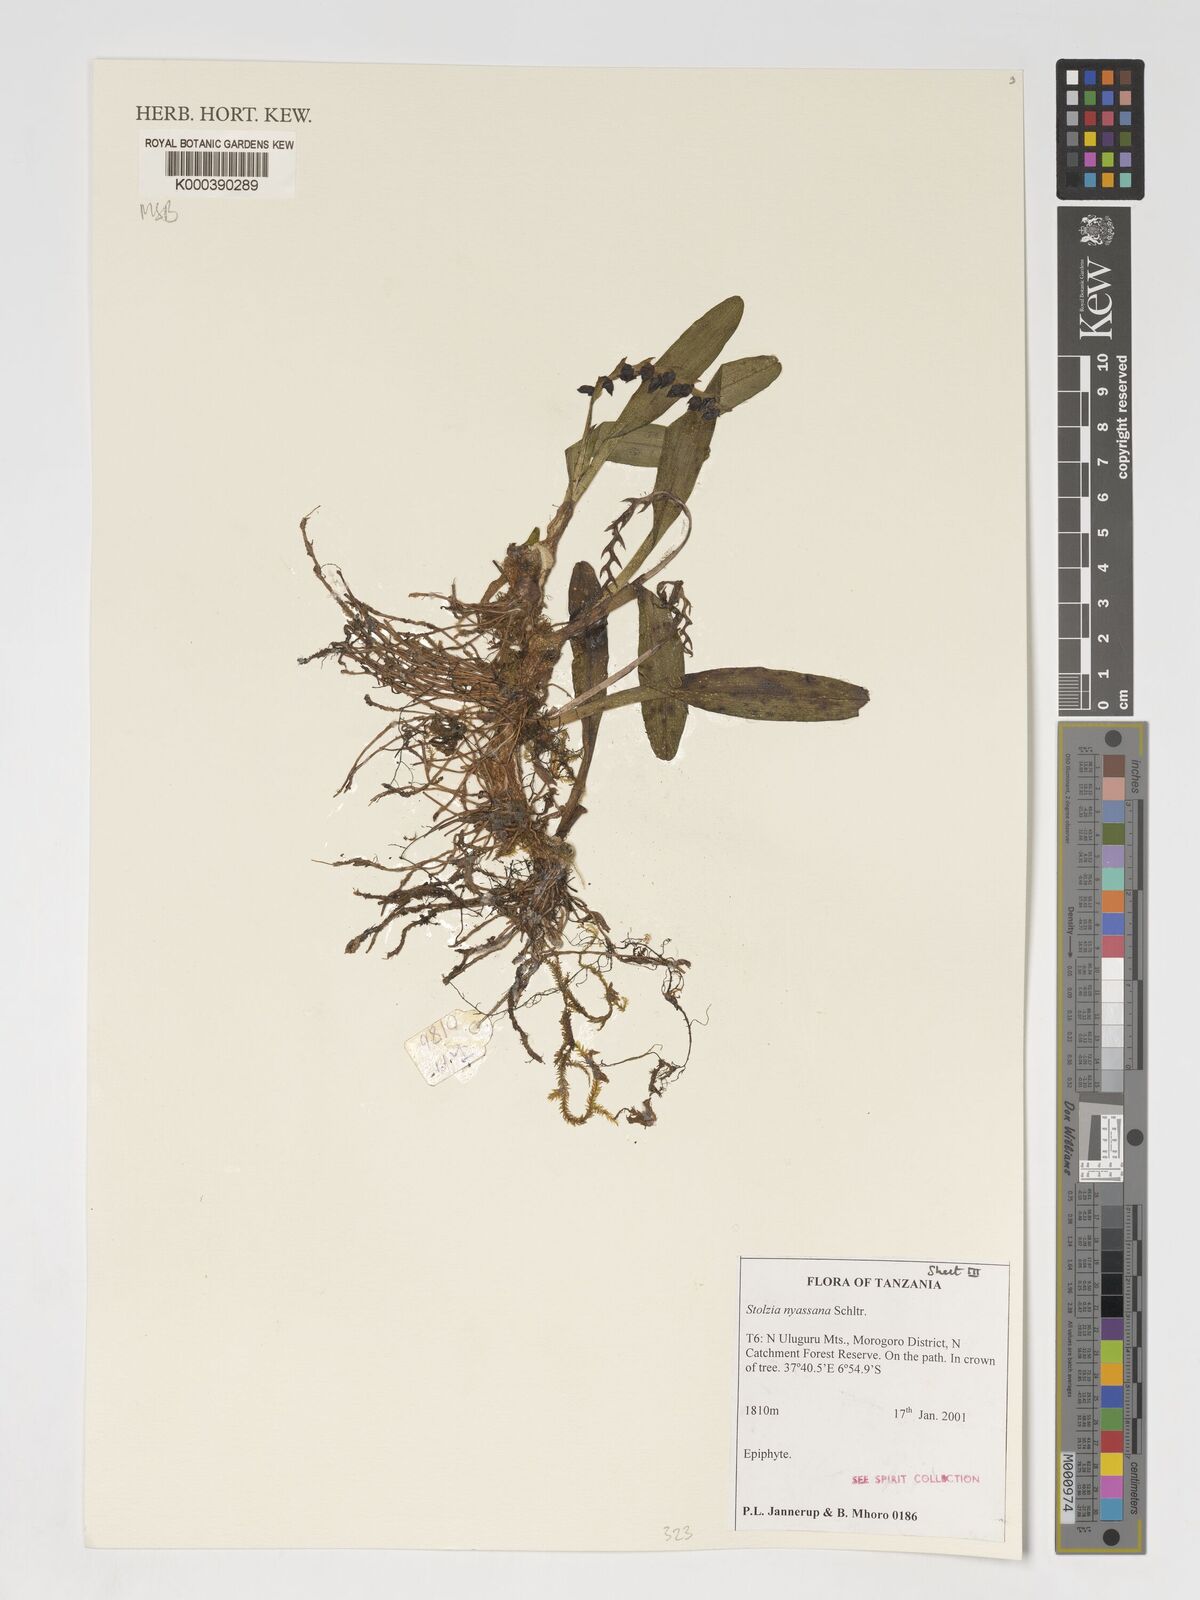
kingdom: Plantae
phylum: Tracheophyta
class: Liliopsida
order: Asparagales
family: Orchidaceae
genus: Porpax
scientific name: Porpax nyassana
